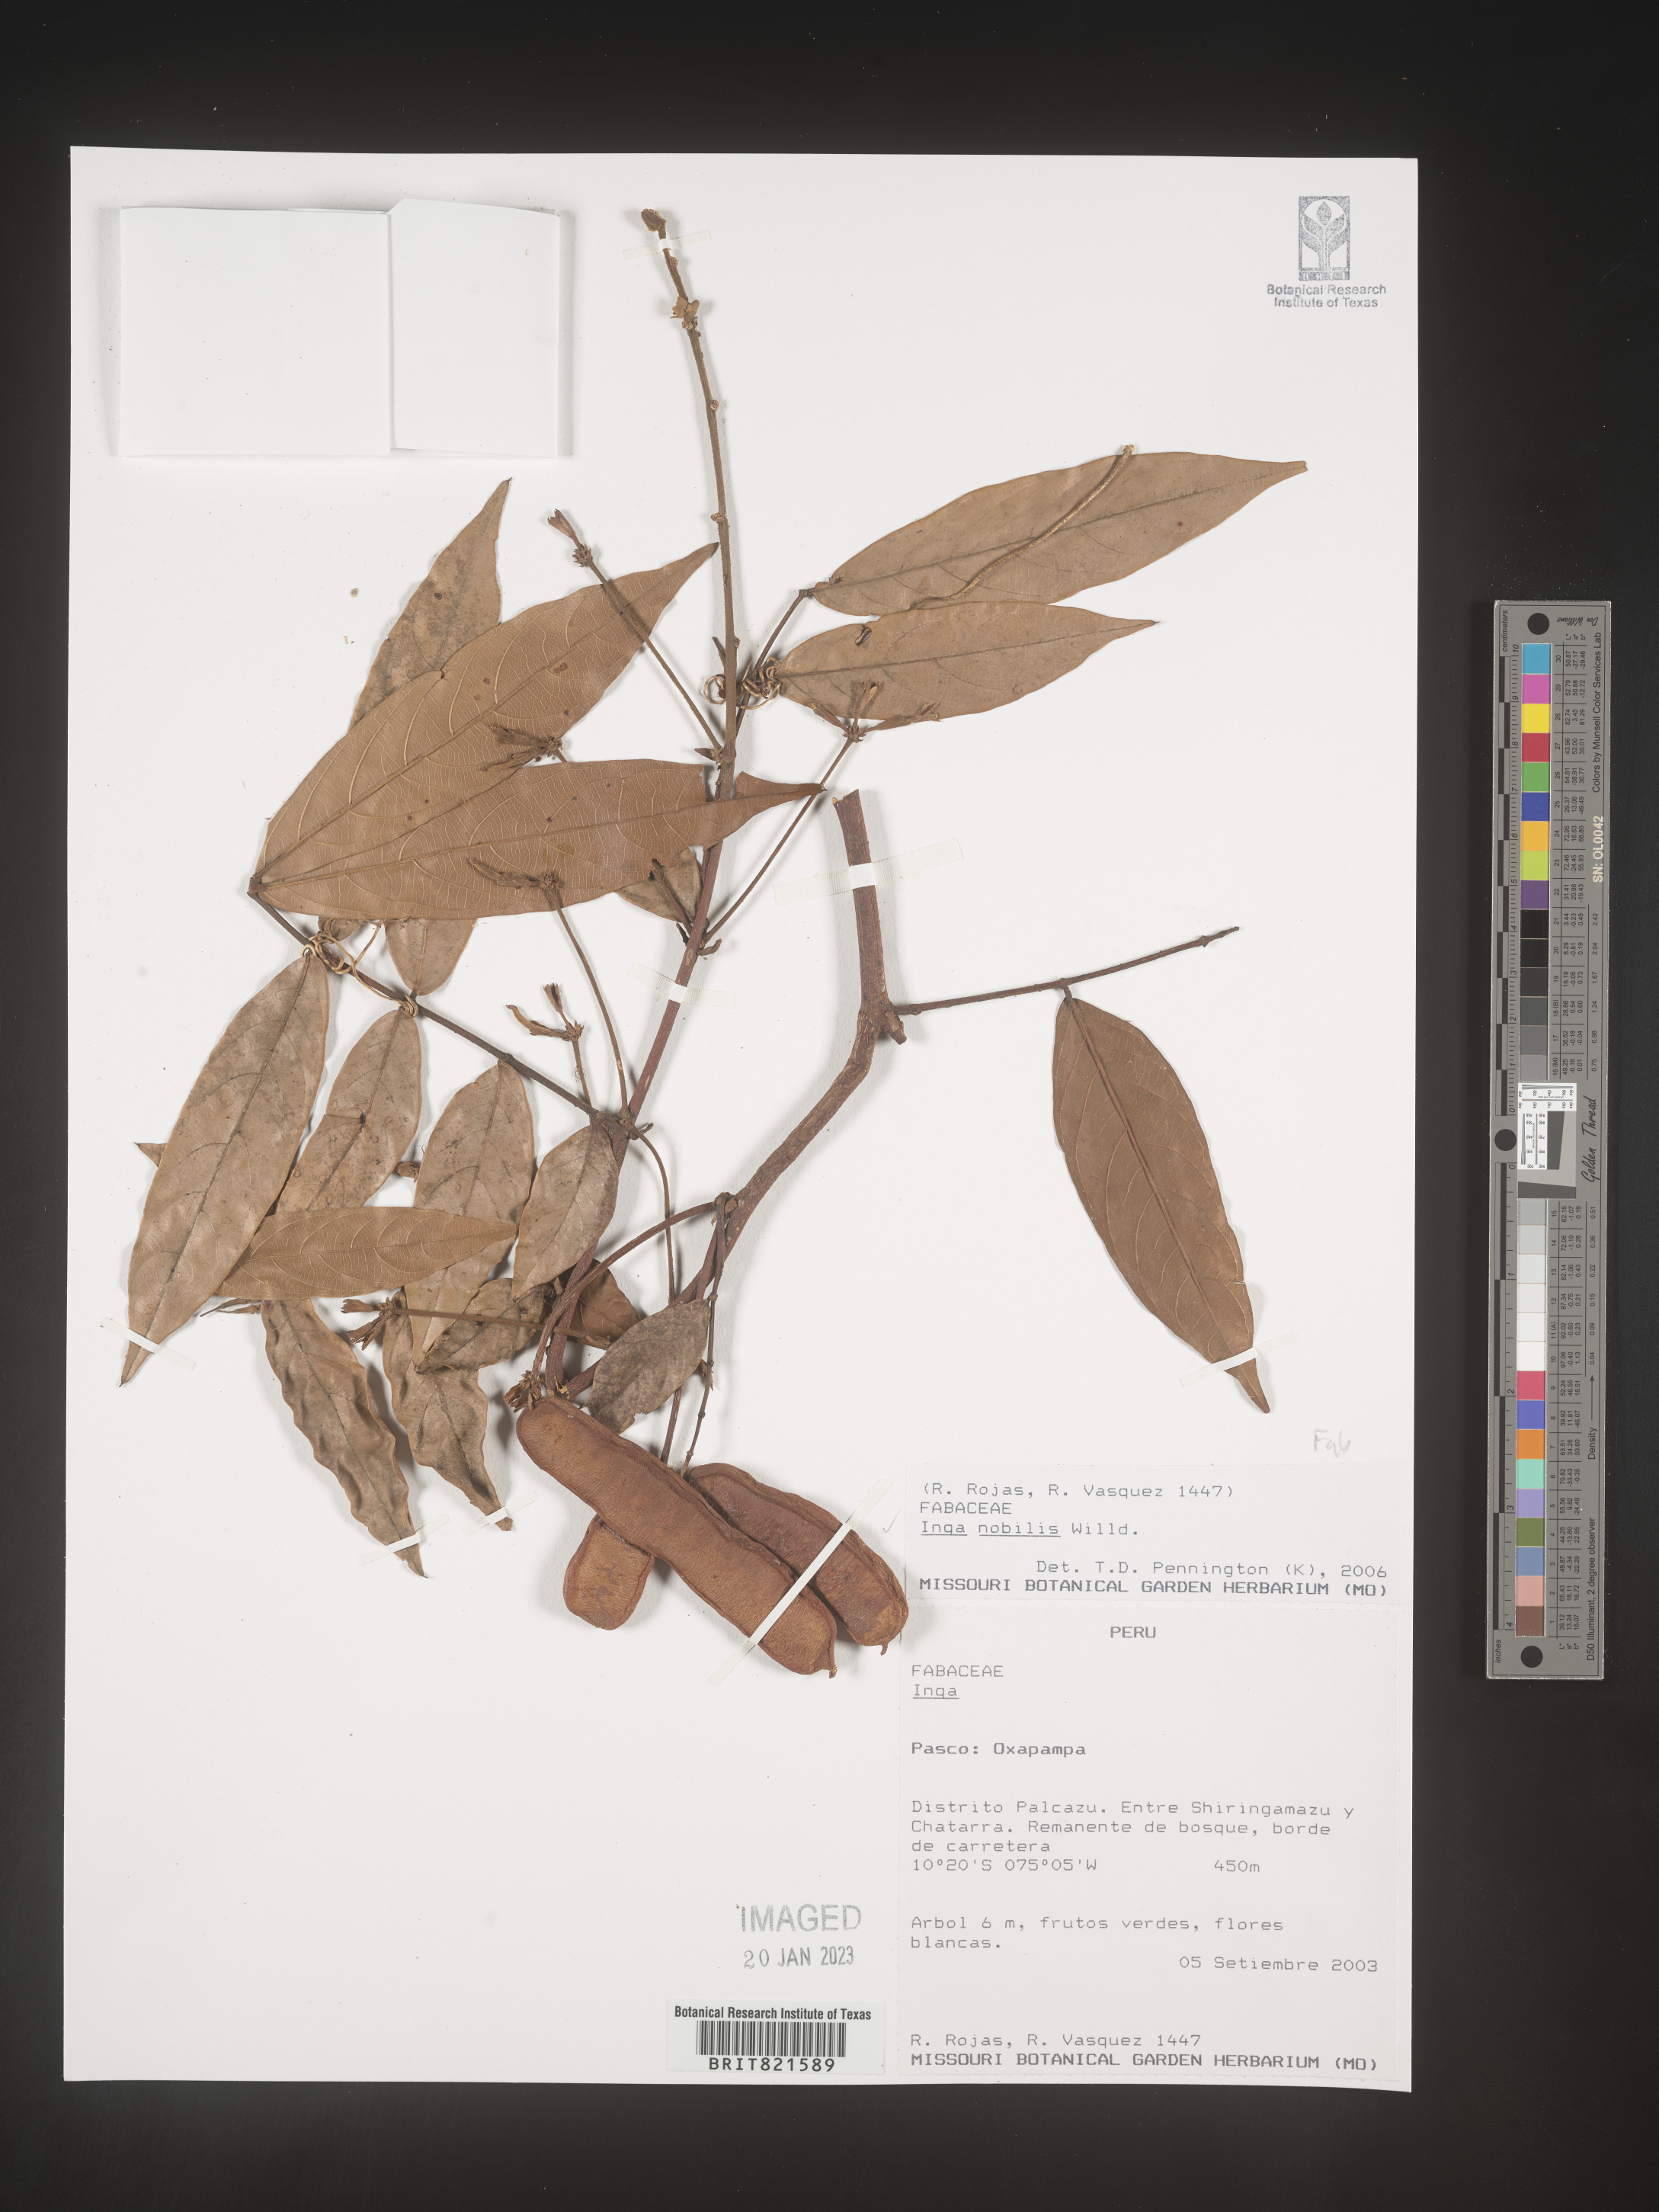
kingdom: Plantae
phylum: Tracheophyta
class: Magnoliopsida
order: Fabales
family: Fabaceae
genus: Inga
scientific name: Inga
